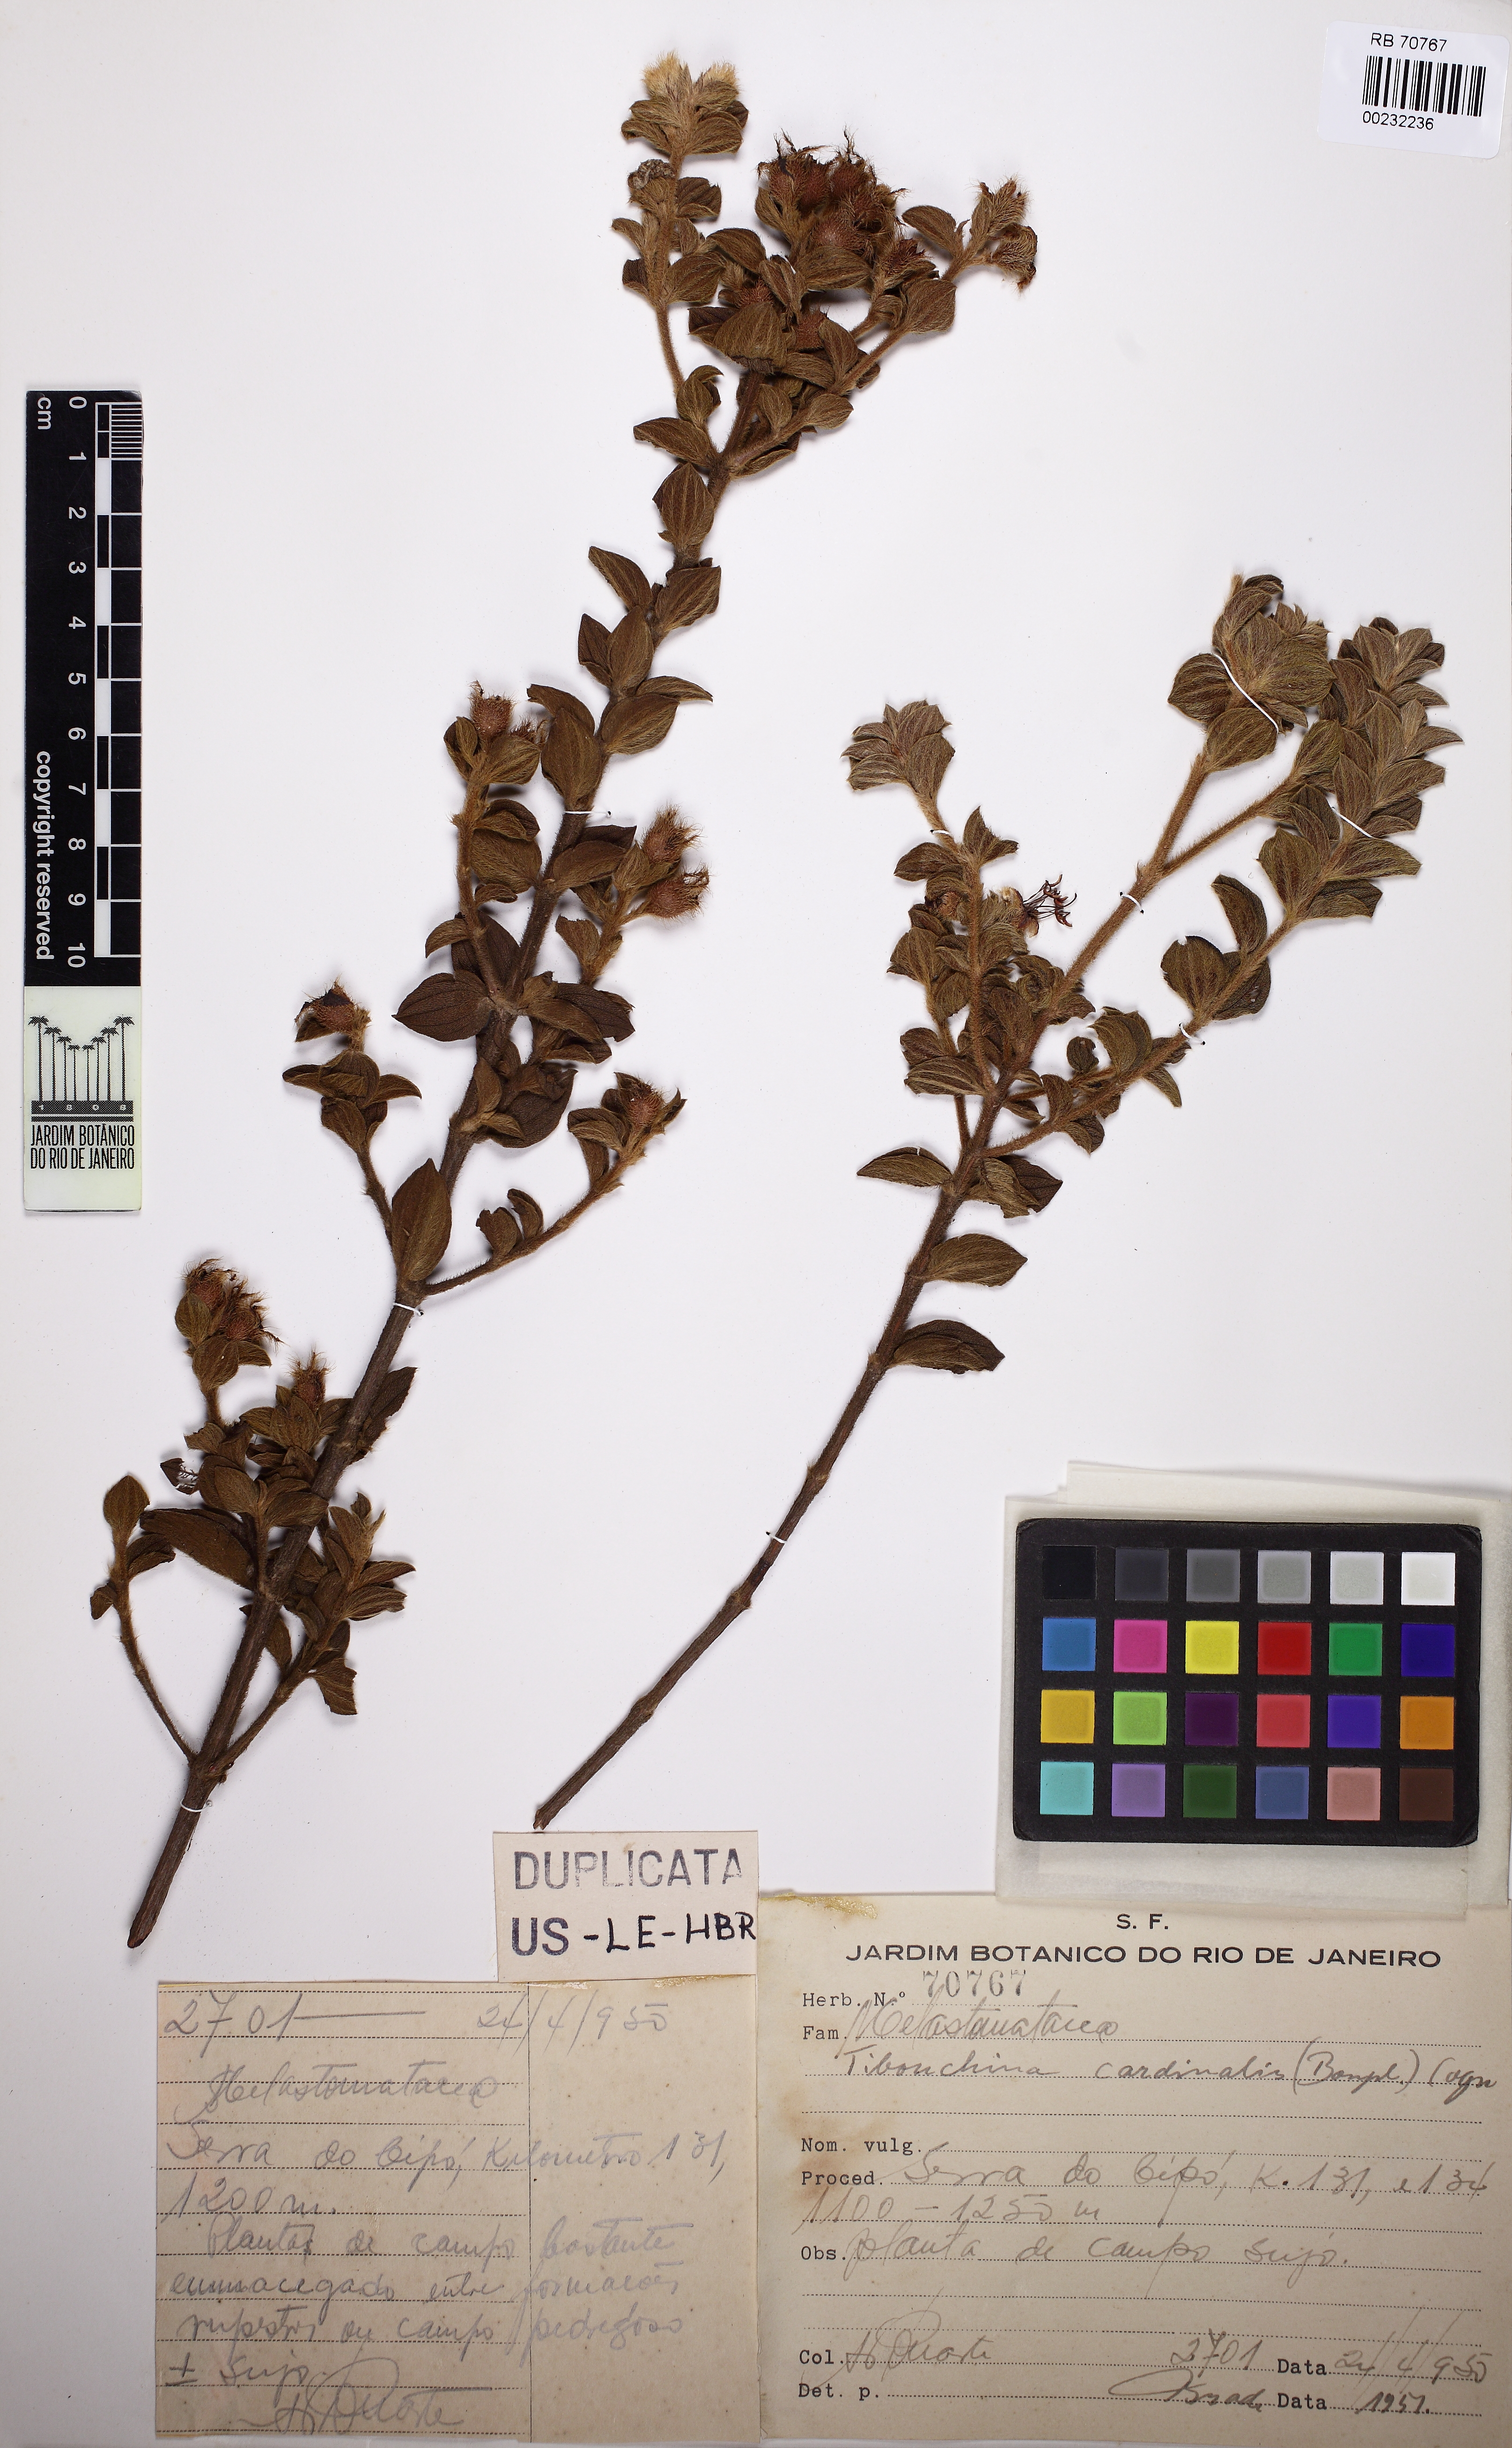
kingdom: Plantae
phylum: Tracheophyta
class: Magnoliopsida
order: Myrtales
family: Melastomataceae
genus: Chaetogastra
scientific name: Chaetogastra cardinalis
